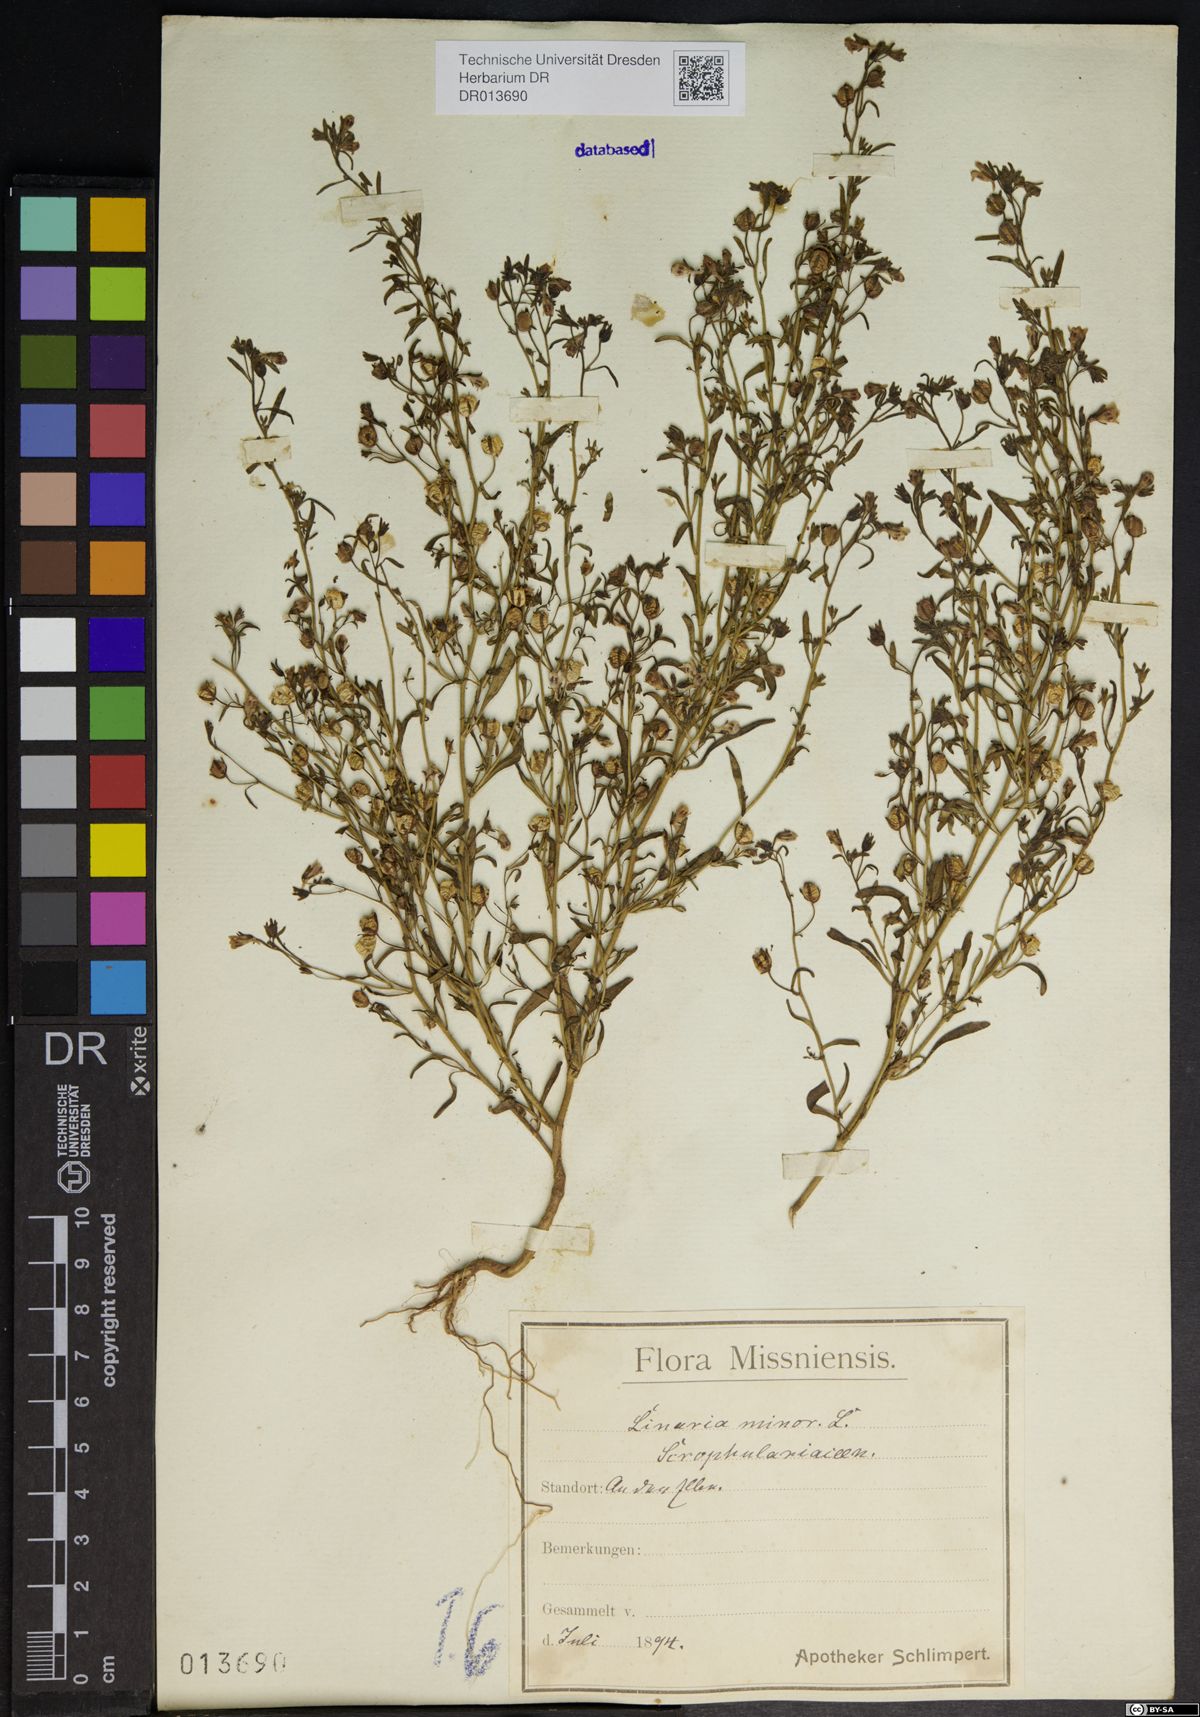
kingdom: Plantae
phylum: Tracheophyta
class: Magnoliopsida
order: Lamiales
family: Plantaginaceae
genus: Chaenorhinum
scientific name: Chaenorhinum minus
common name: Dwarf snapdragon
